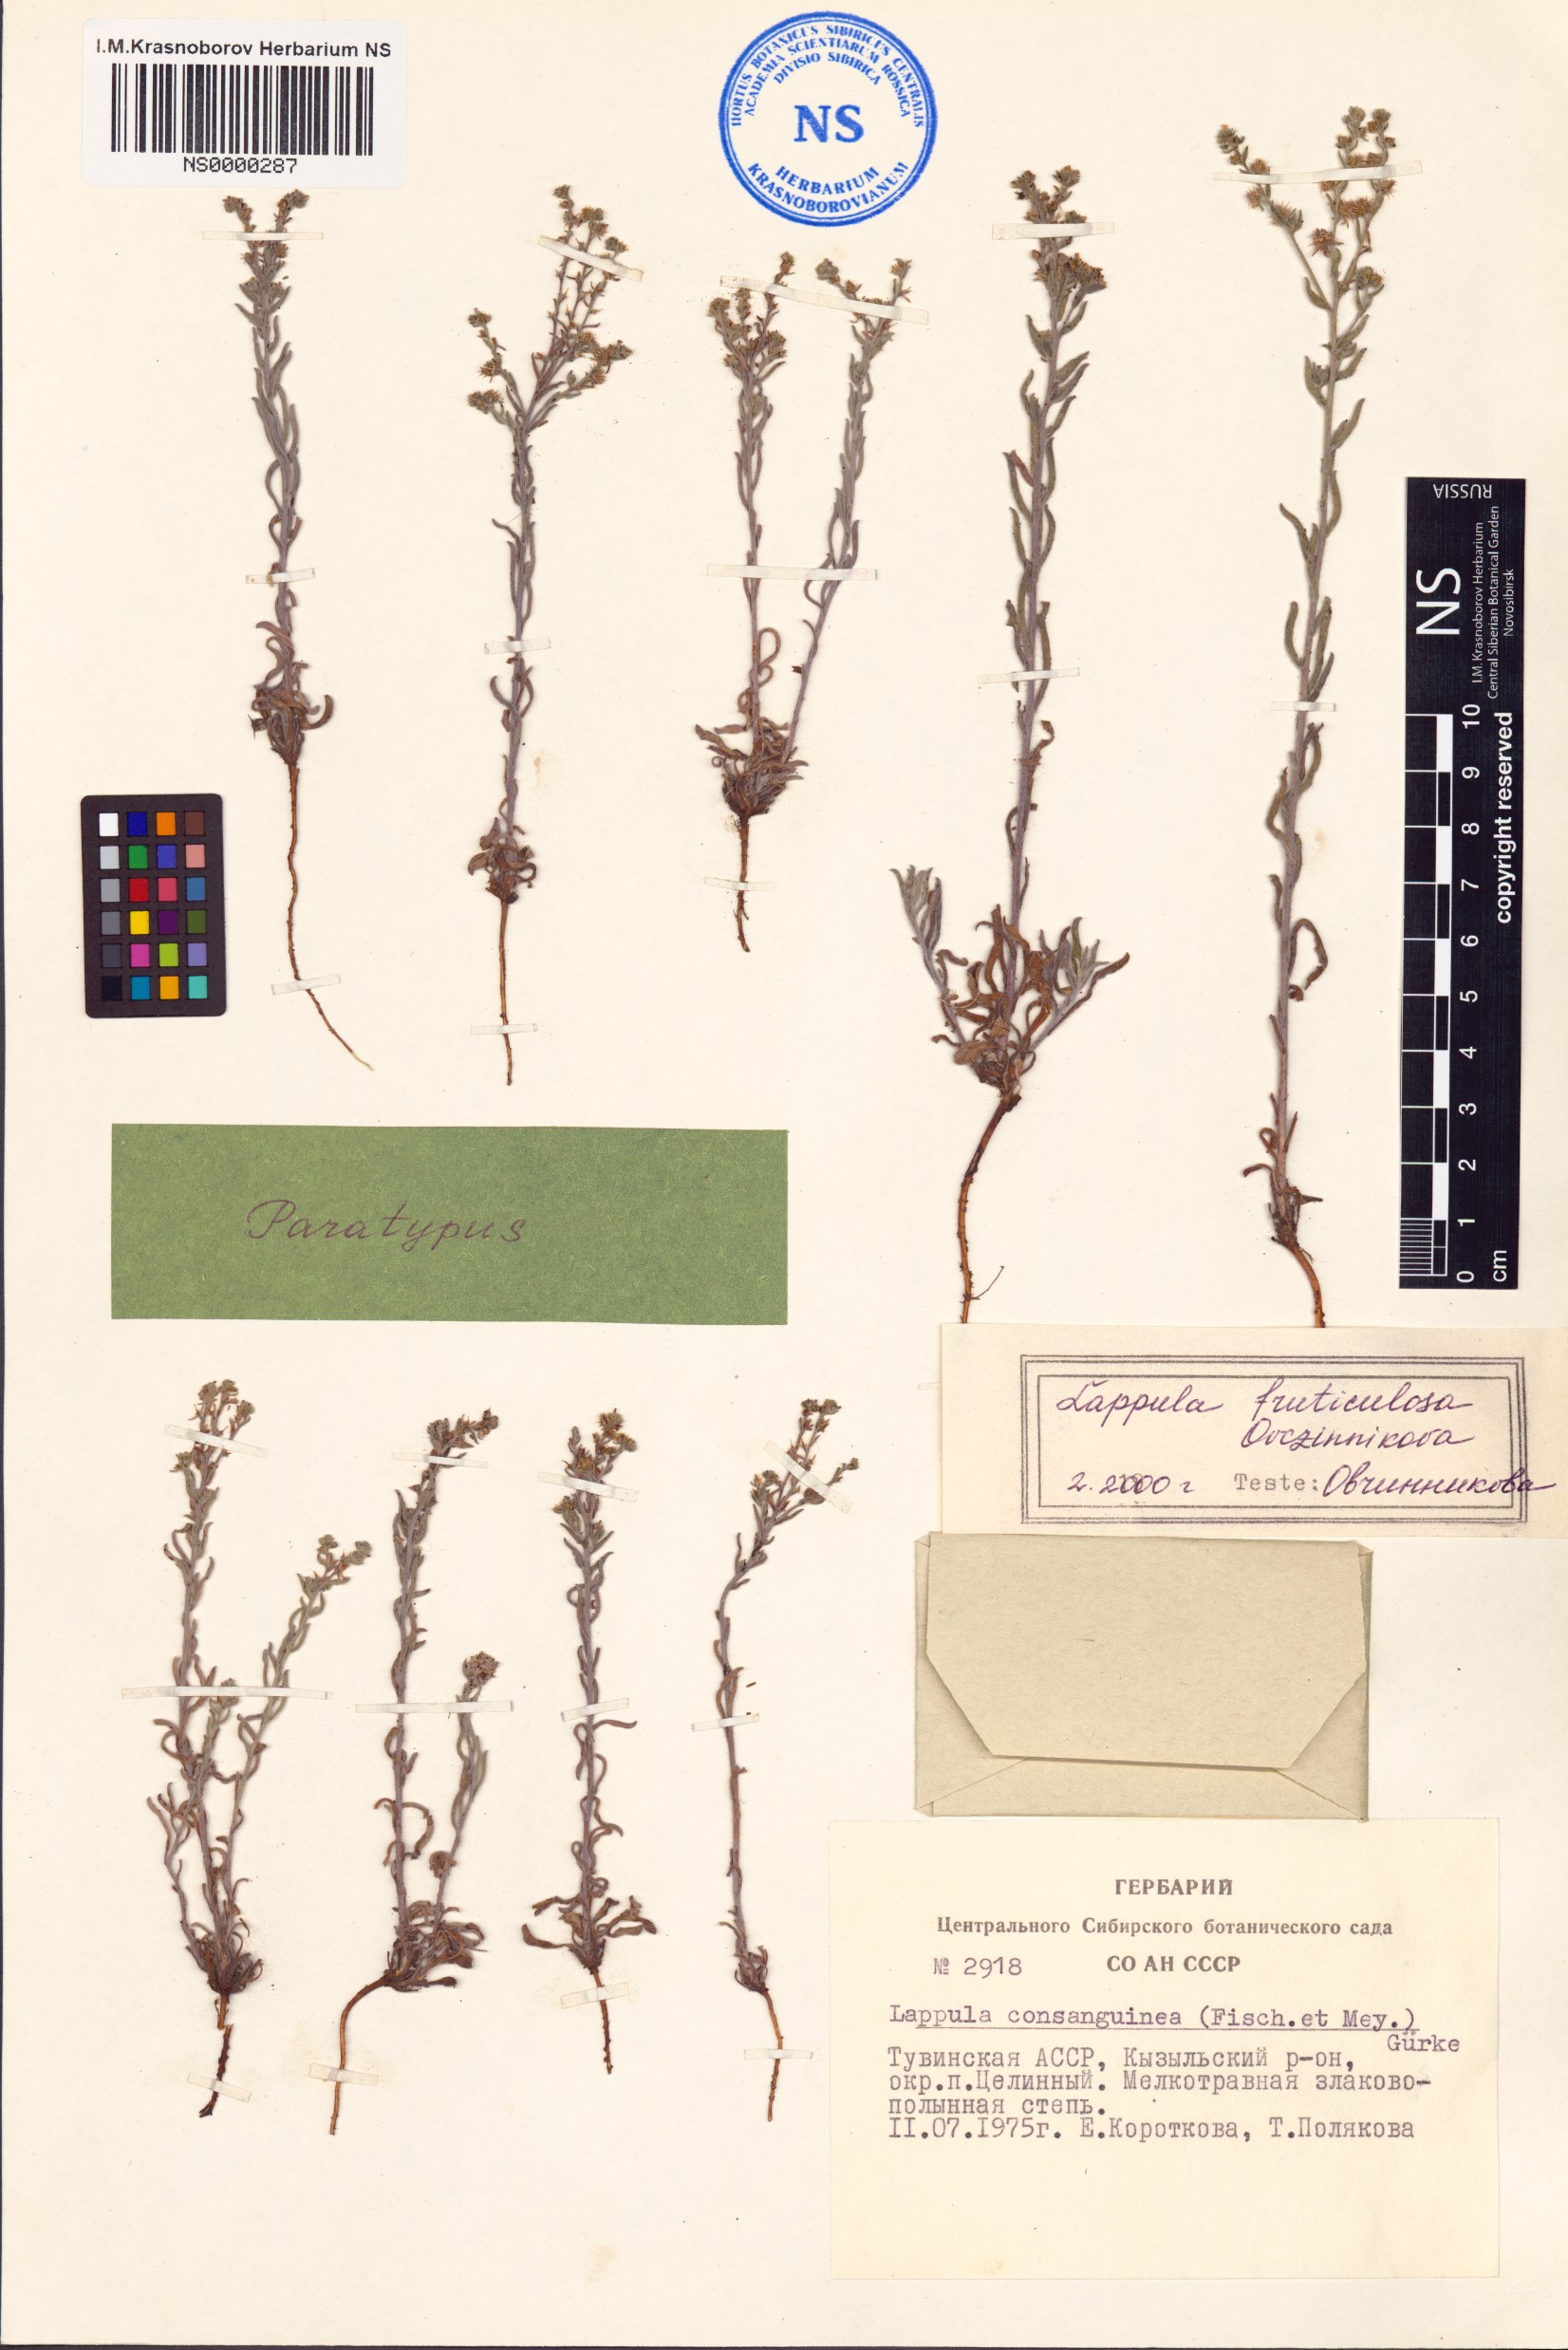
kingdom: Plantae
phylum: Tracheophyta
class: Magnoliopsida
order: Boraginales
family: Boraginaceae
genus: Lappula
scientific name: Lappula fruticulosa
